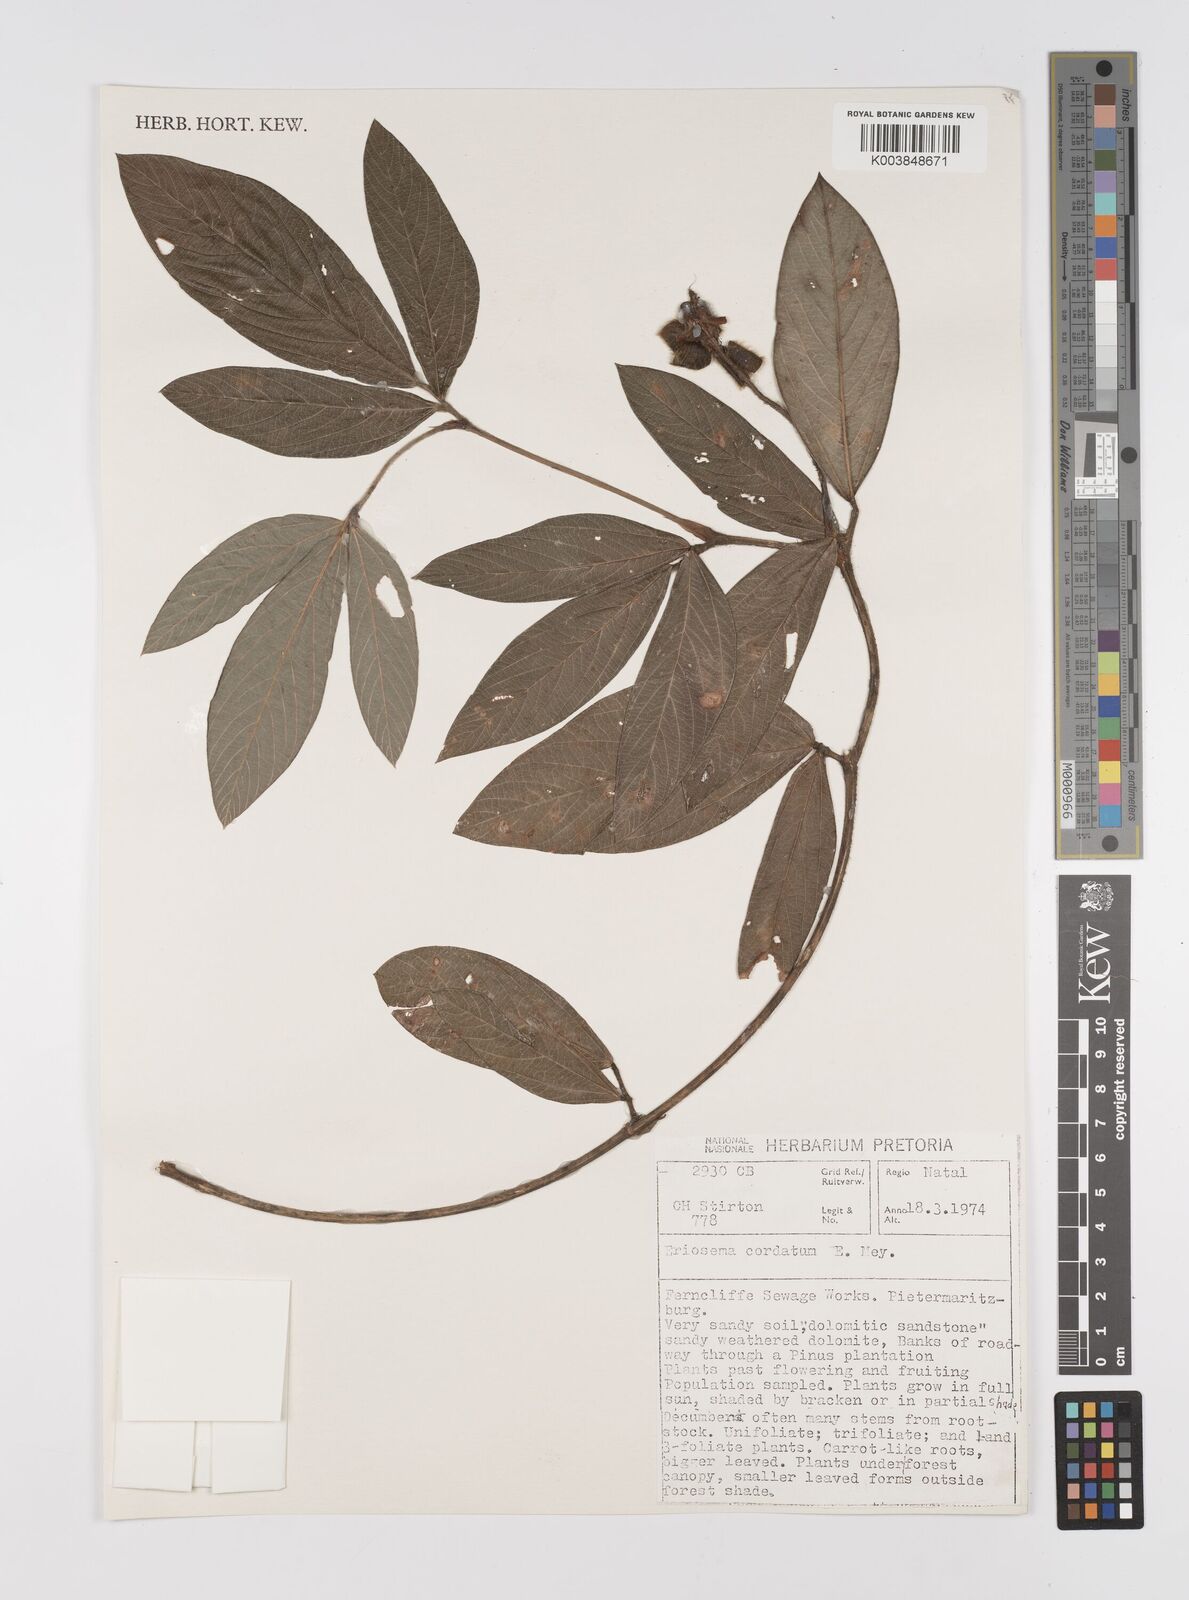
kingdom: Plantae
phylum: Tracheophyta
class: Magnoliopsida
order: Fabales
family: Fabaceae
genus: Eriosema
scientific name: Eriosema cordatum
